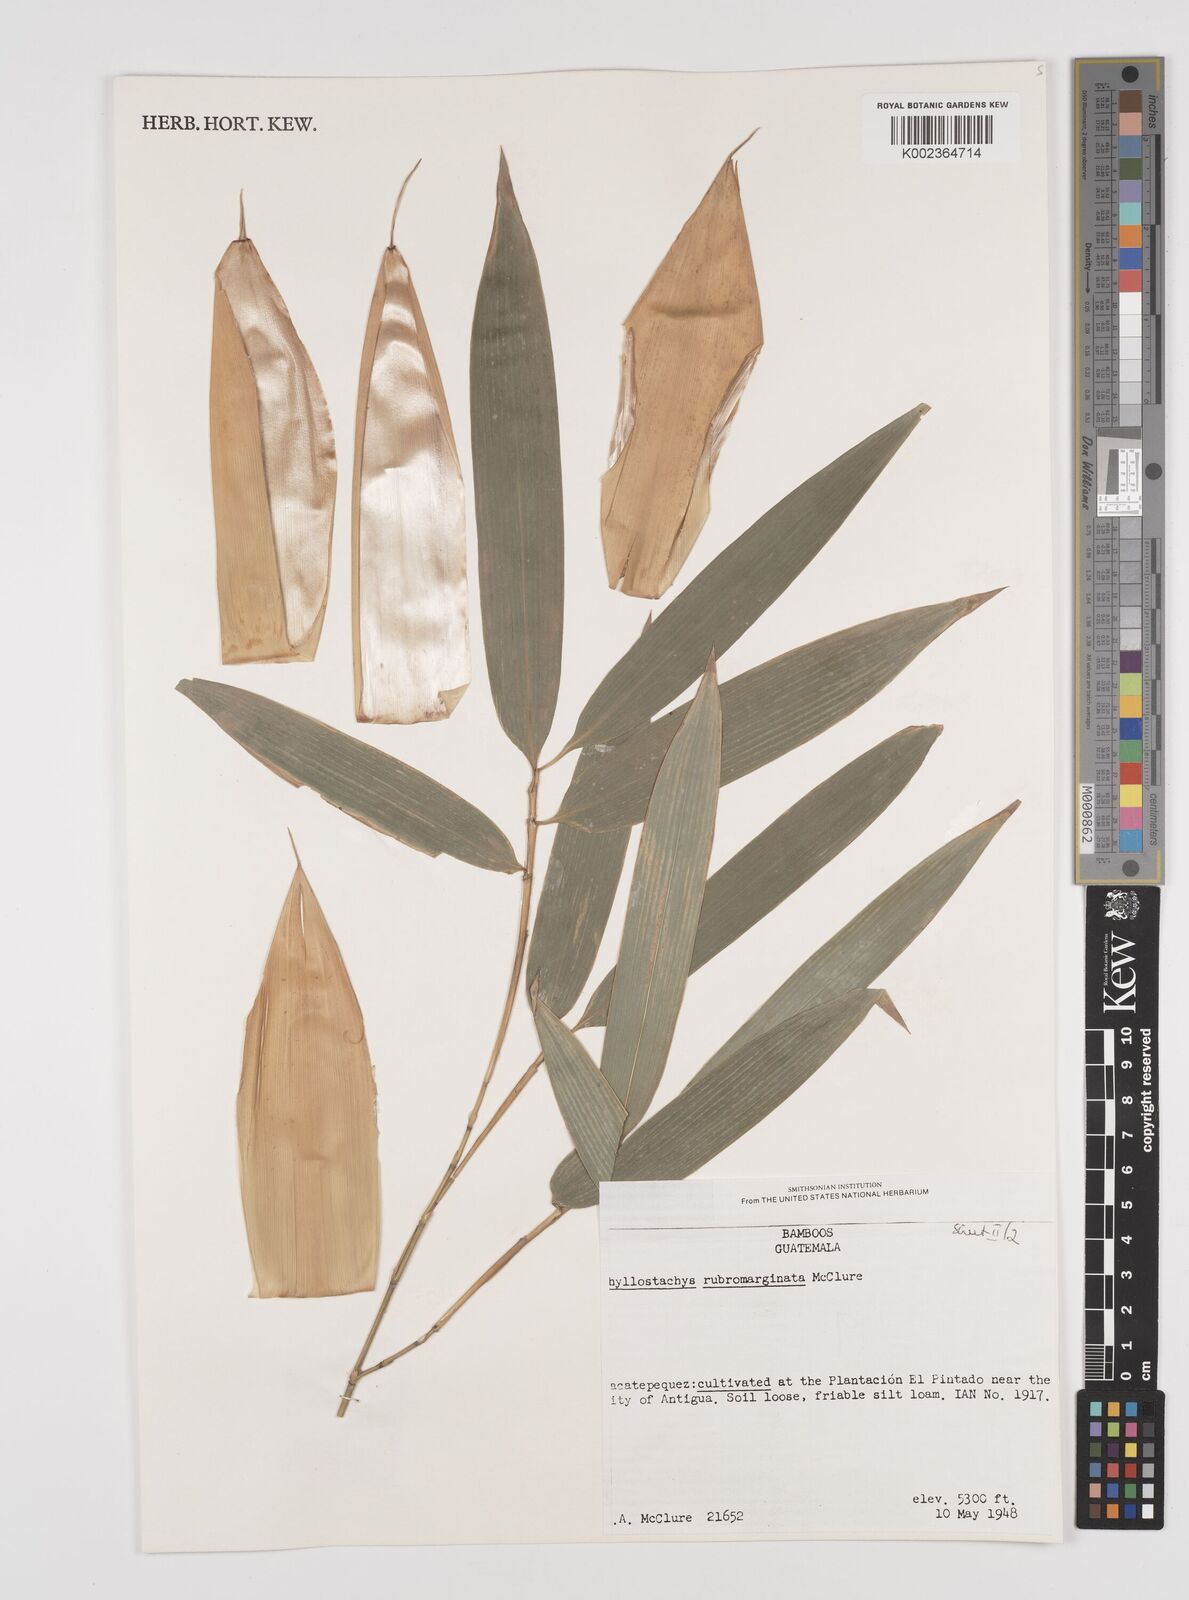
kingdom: Plantae
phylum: Tracheophyta
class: Liliopsida
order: Poales
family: Poaceae
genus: Phyllostachys
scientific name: Phyllostachys rubromarginata
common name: Reddish bamboo
